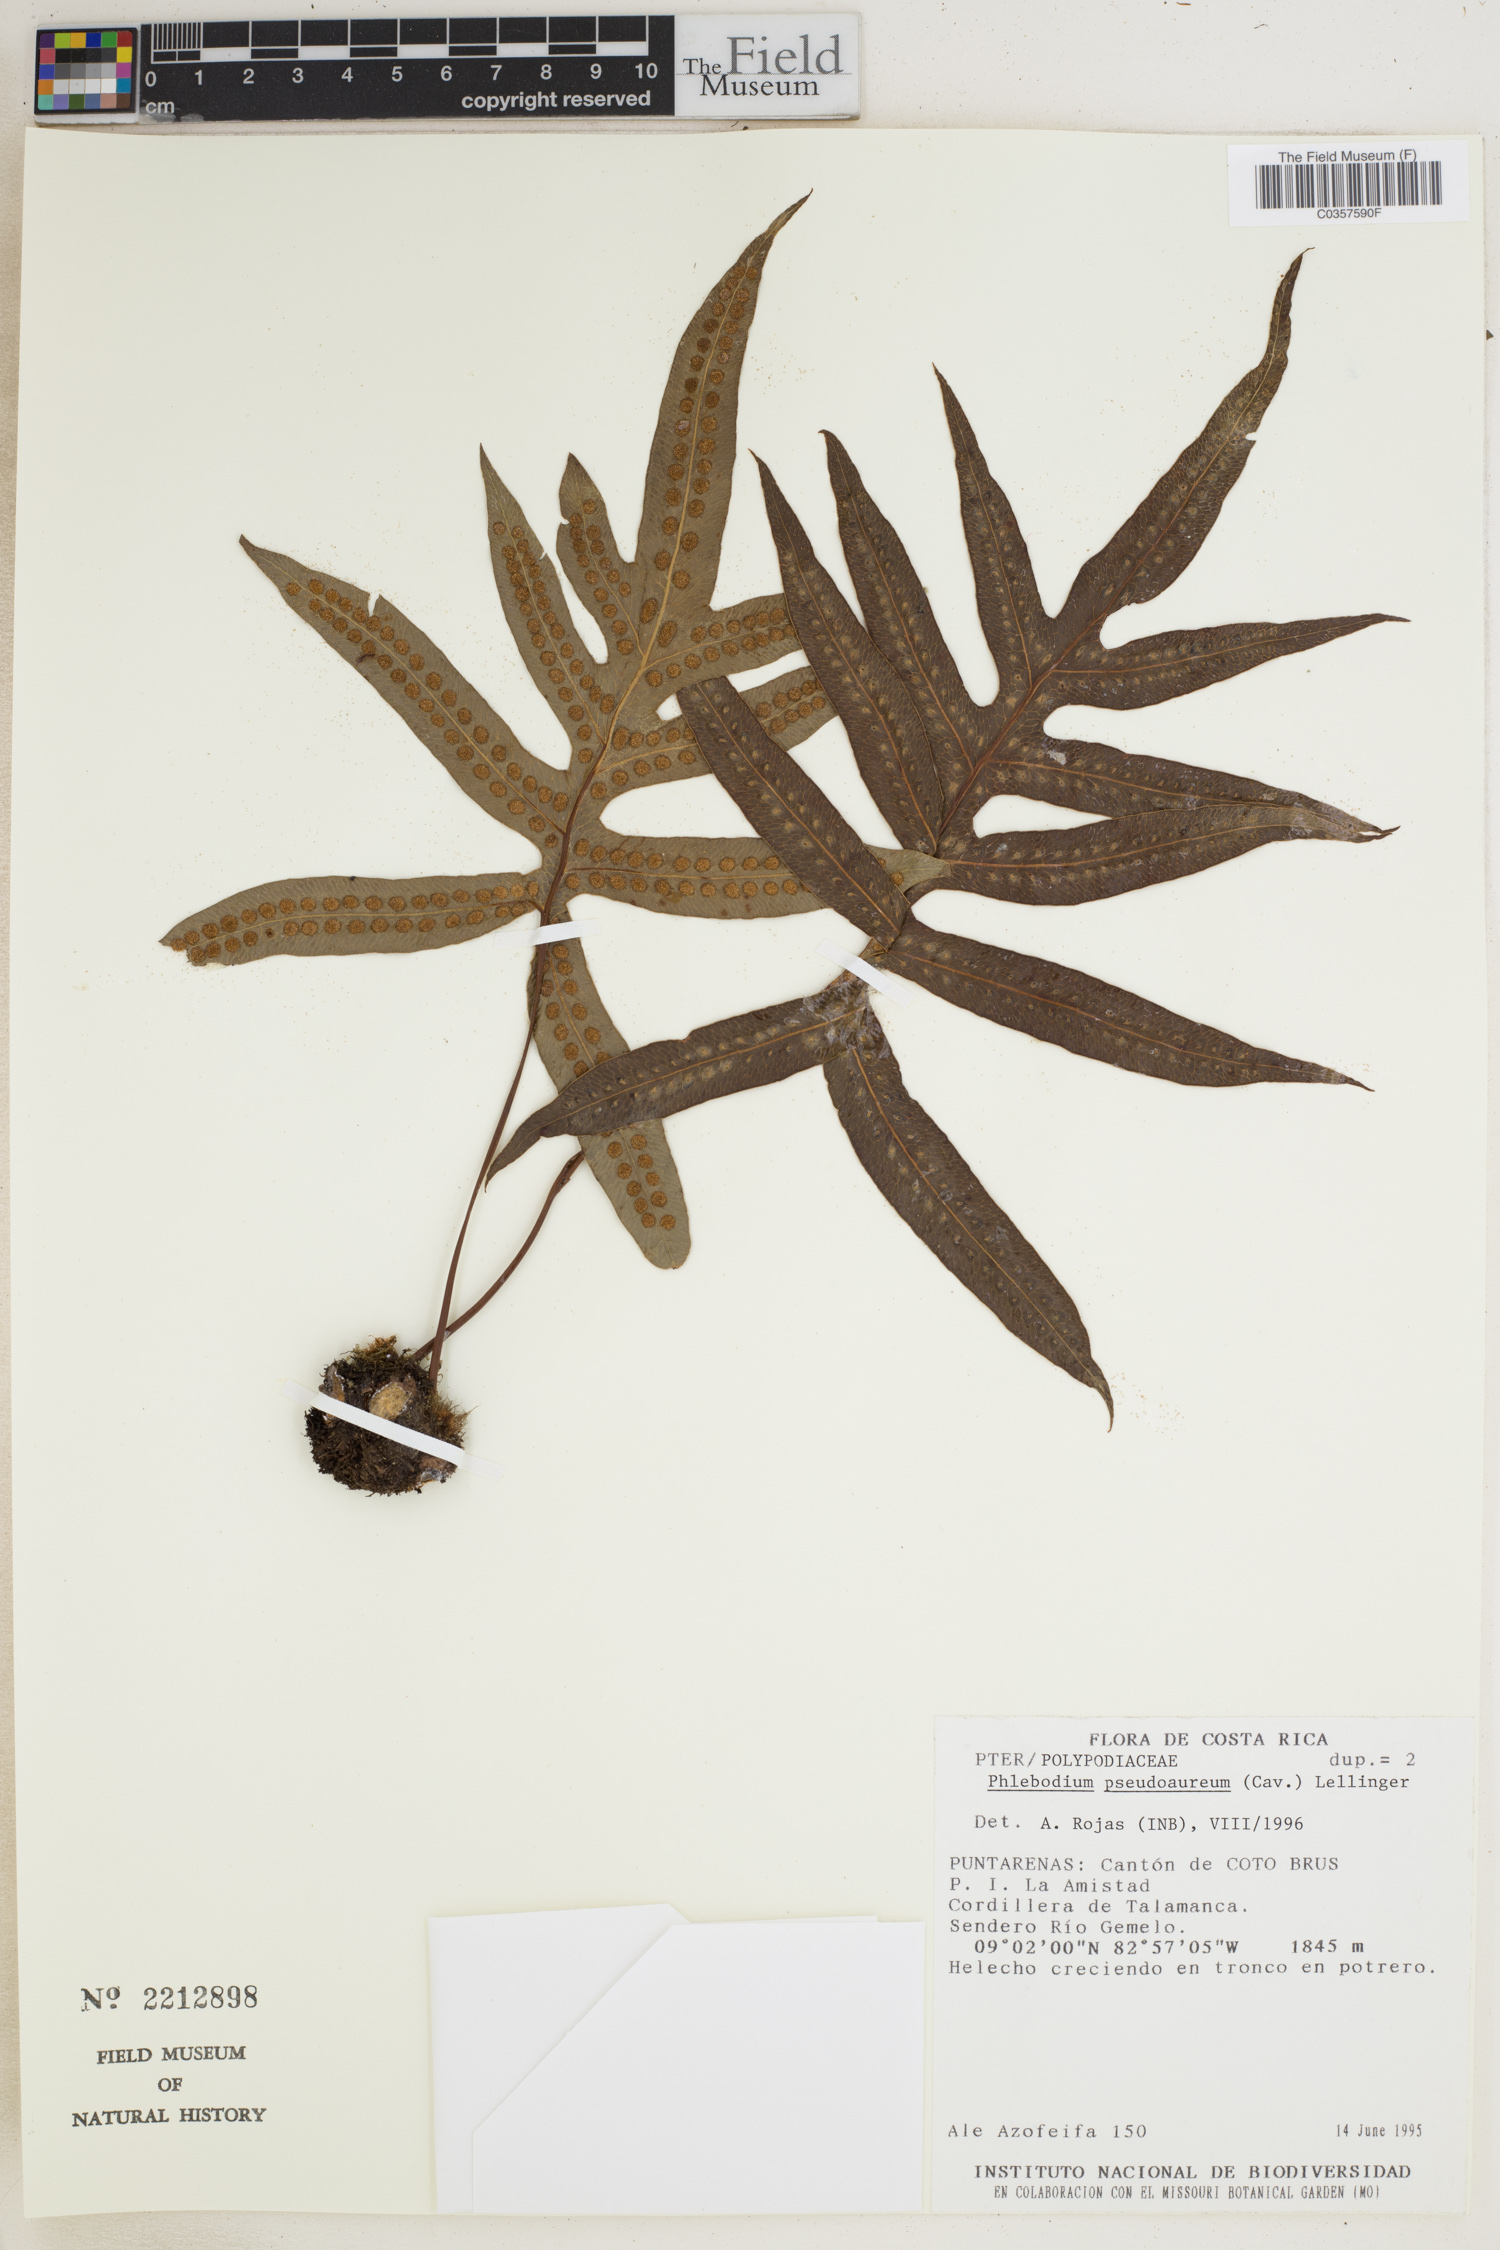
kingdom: Plantae
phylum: Tracheophyta
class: Polypodiopsida
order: Polypodiales
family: Polypodiaceae
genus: Phlebodium
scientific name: Phlebodium pseudoaureum
